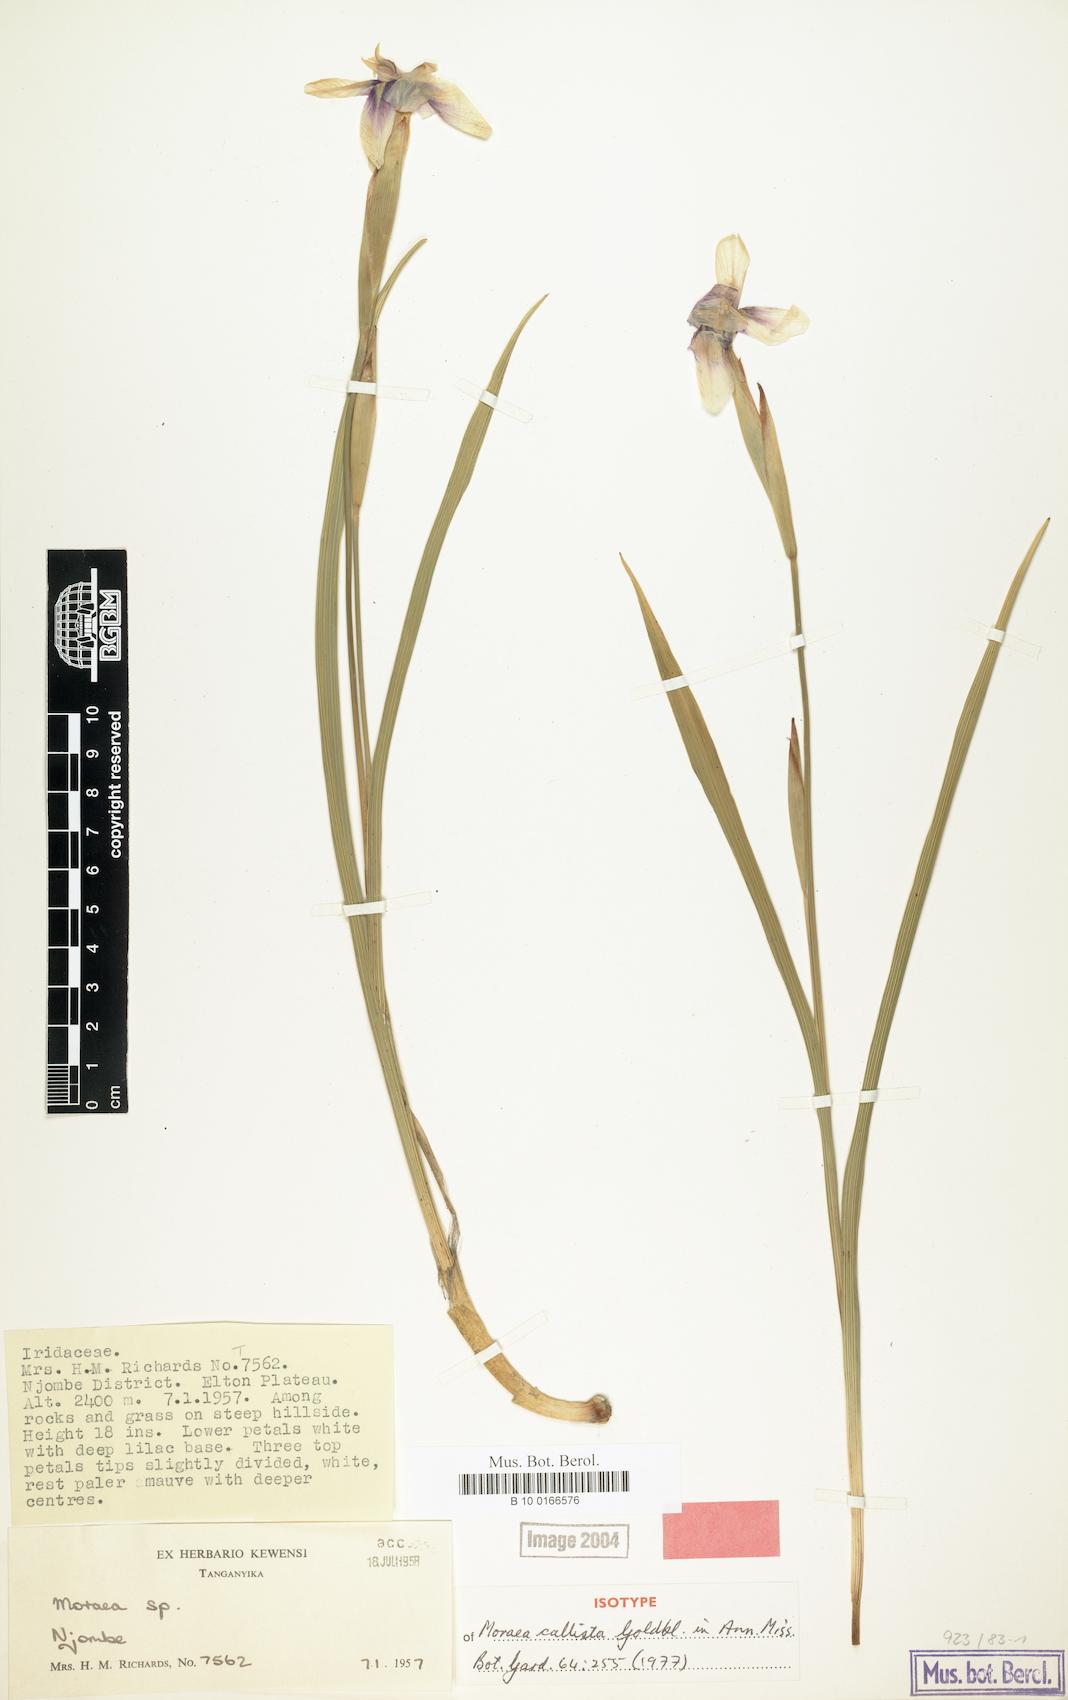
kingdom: Plantae
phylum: Tracheophyta
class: Liliopsida
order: Asparagales
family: Iridaceae
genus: Moraea
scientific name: Moraea callista
